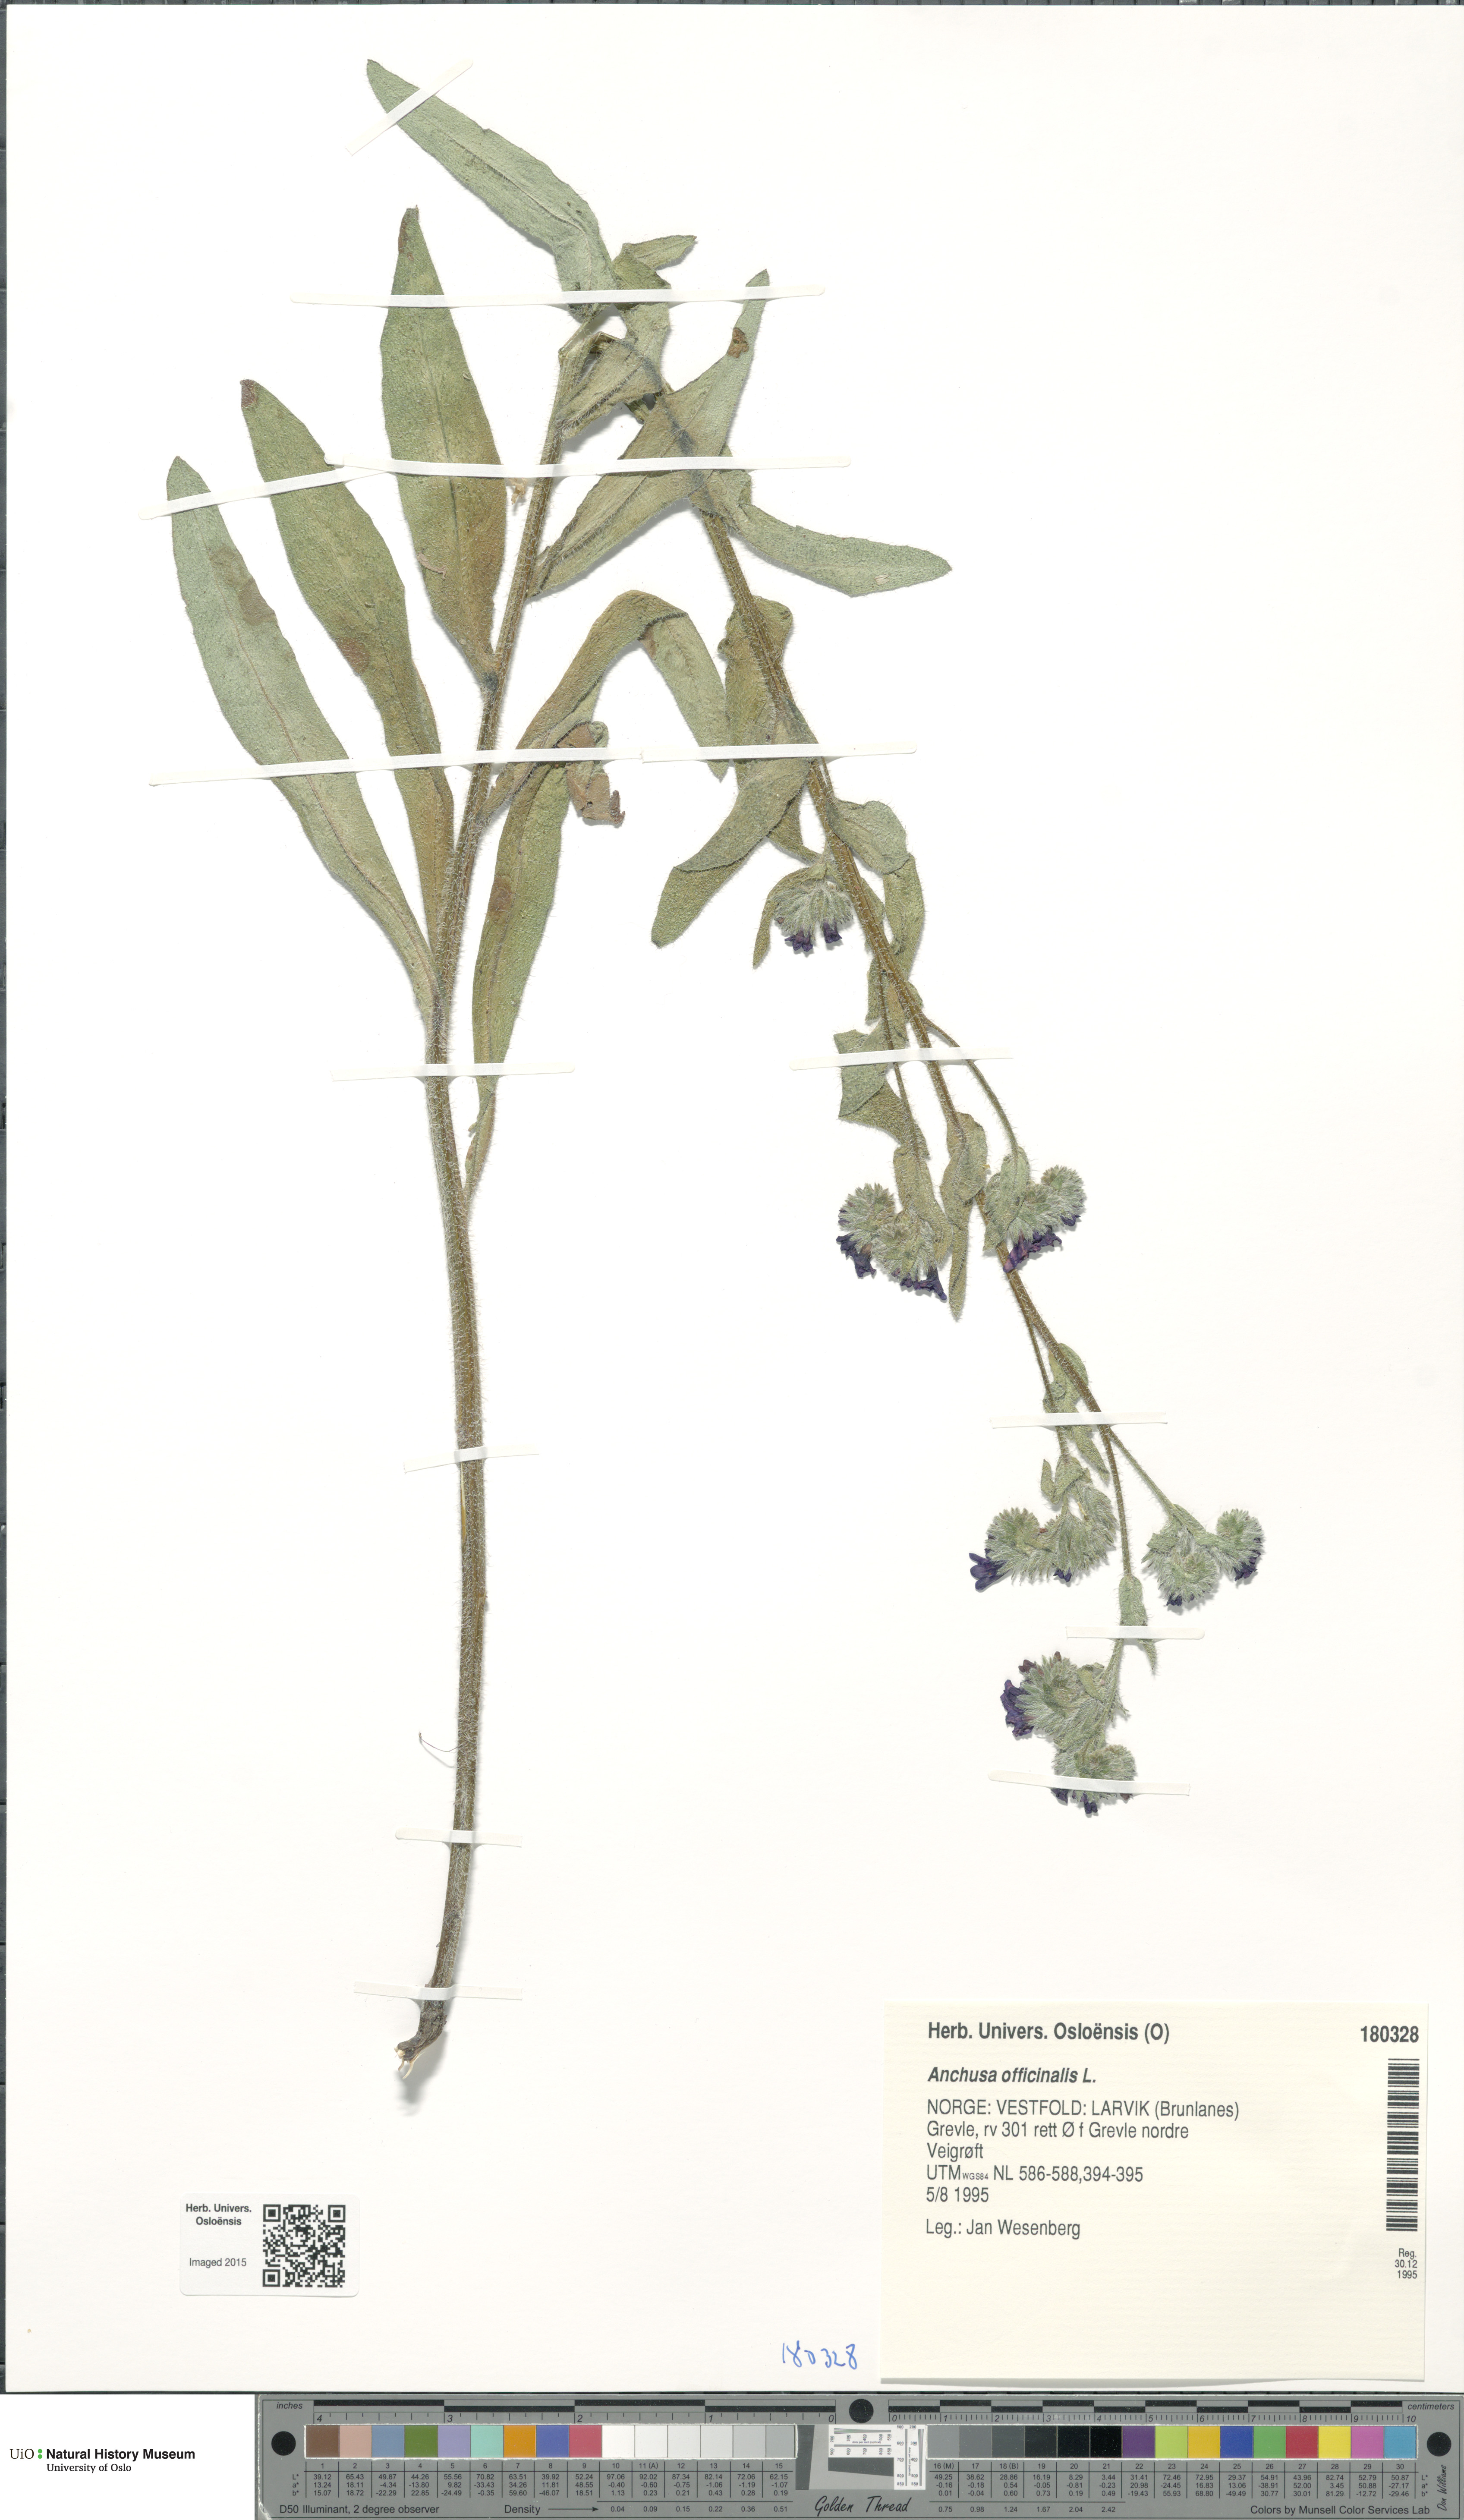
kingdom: Plantae
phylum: Tracheophyta
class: Magnoliopsida
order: Boraginales
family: Boraginaceae
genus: Anchusa
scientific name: Anchusa officinalis
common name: Alkanet
